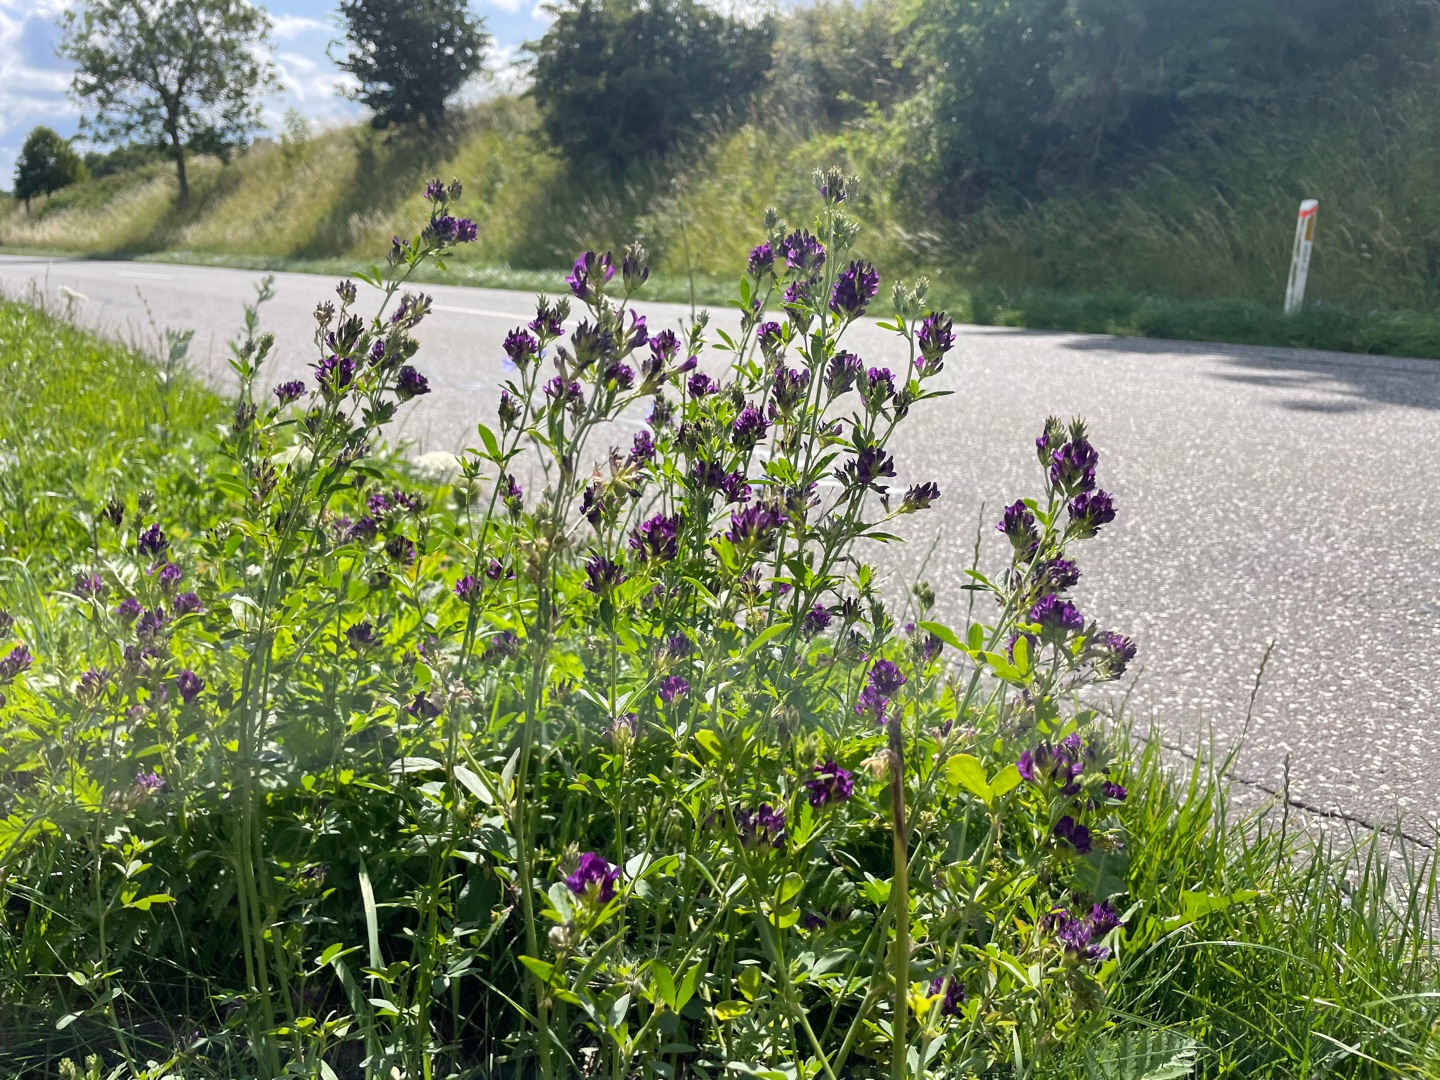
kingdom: Plantae
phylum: Tracheophyta
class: Magnoliopsida
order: Fabales
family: Fabaceae
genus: Medicago
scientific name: Medicago sativa
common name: Lucerne
